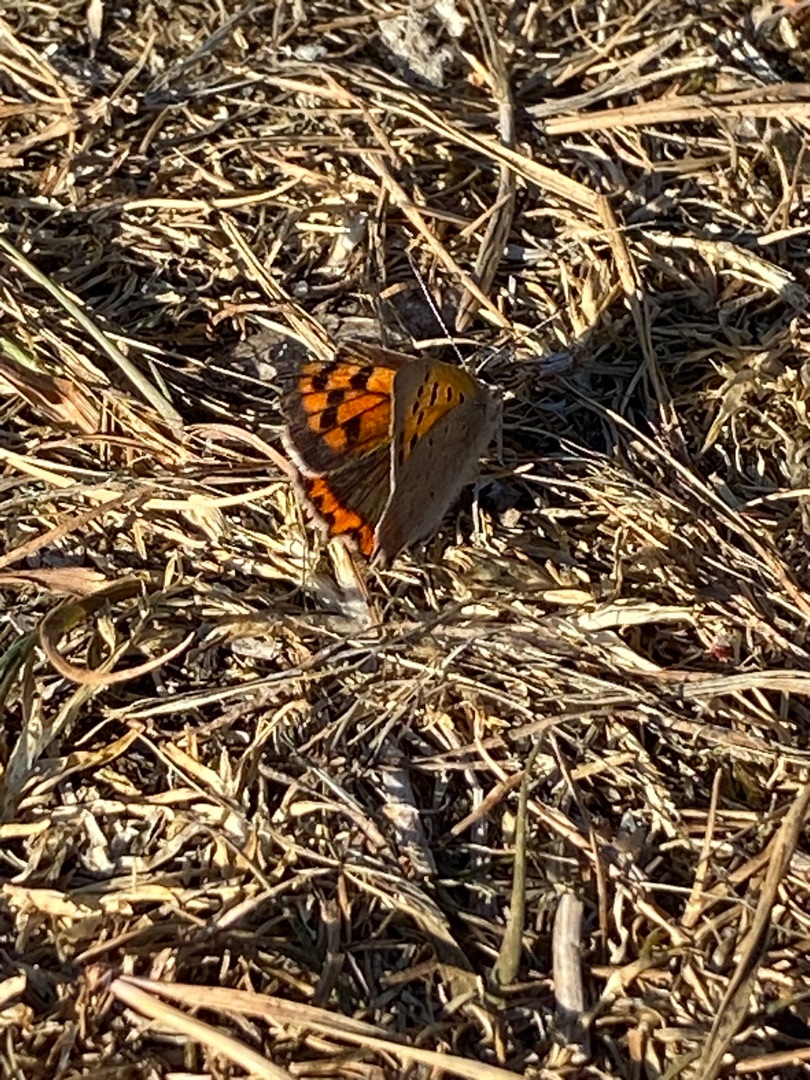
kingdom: Animalia
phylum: Arthropoda
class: Insecta
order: Lepidoptera
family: Lycaenidae
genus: Lycaena
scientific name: Lycaena phlaeas
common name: Lille ildfugl
